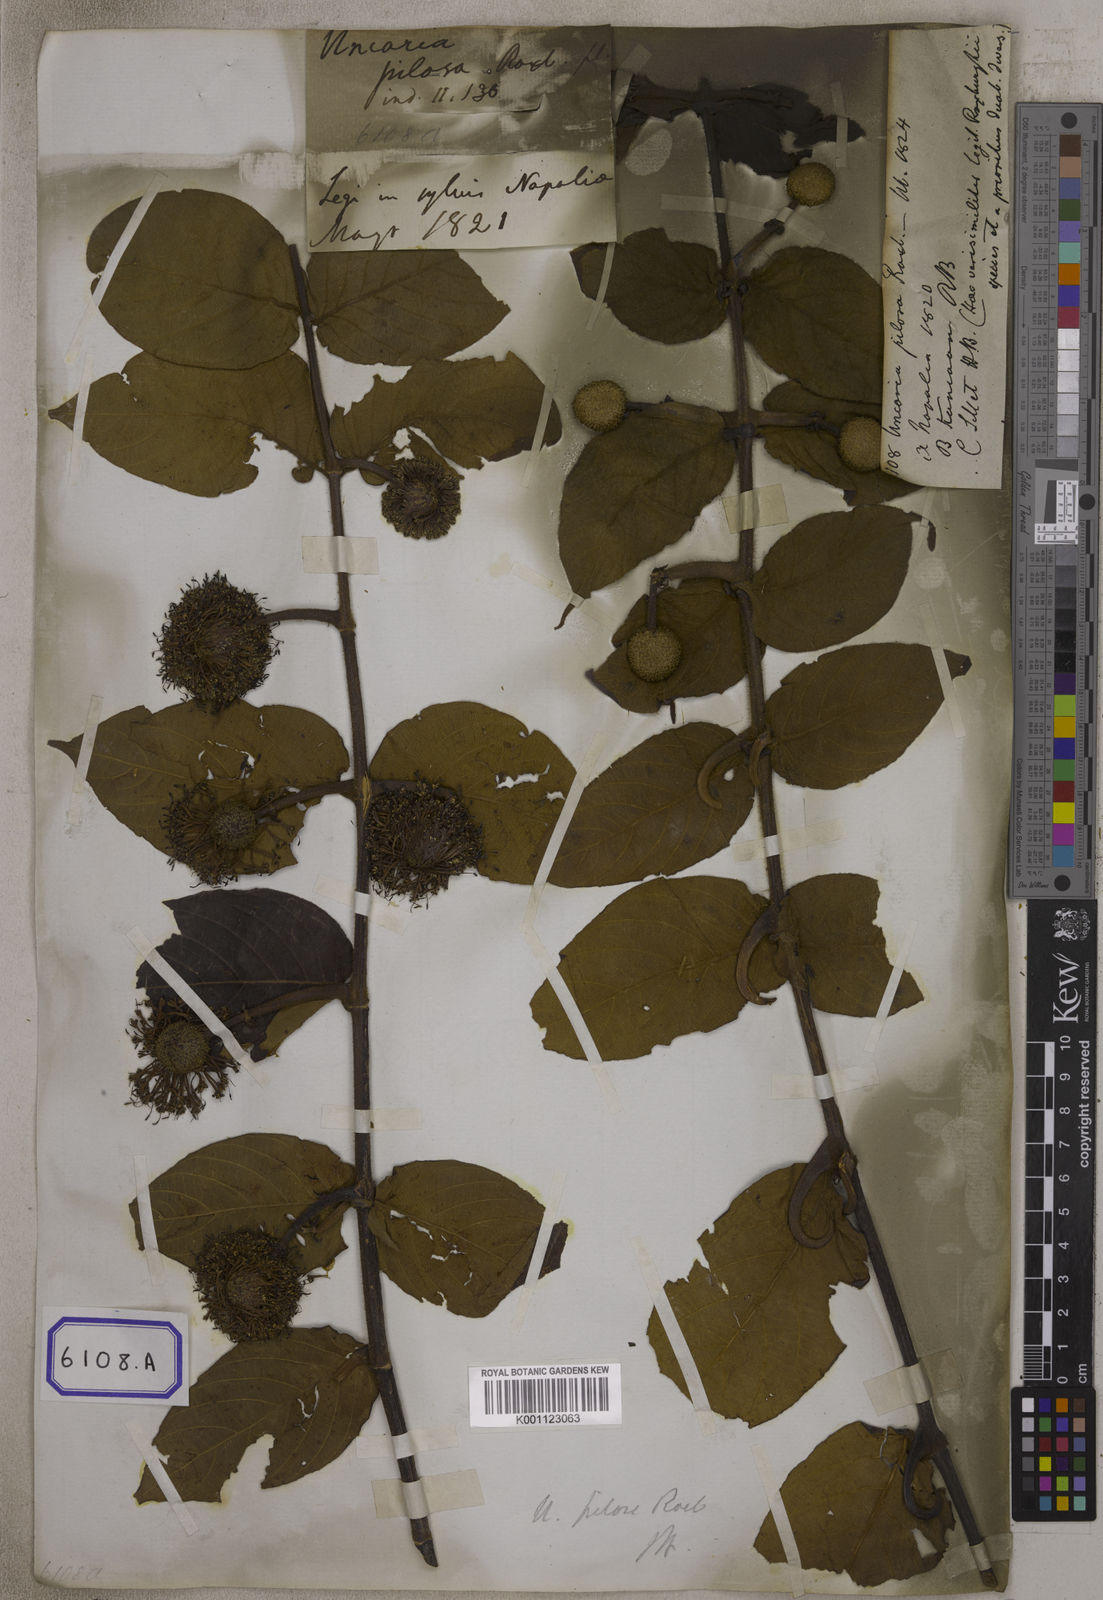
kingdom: Plantae
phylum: Tracheophyta
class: Magnoliopsida
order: Gentianales
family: Rubiaceae
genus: Uncaria
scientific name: Uncaria
